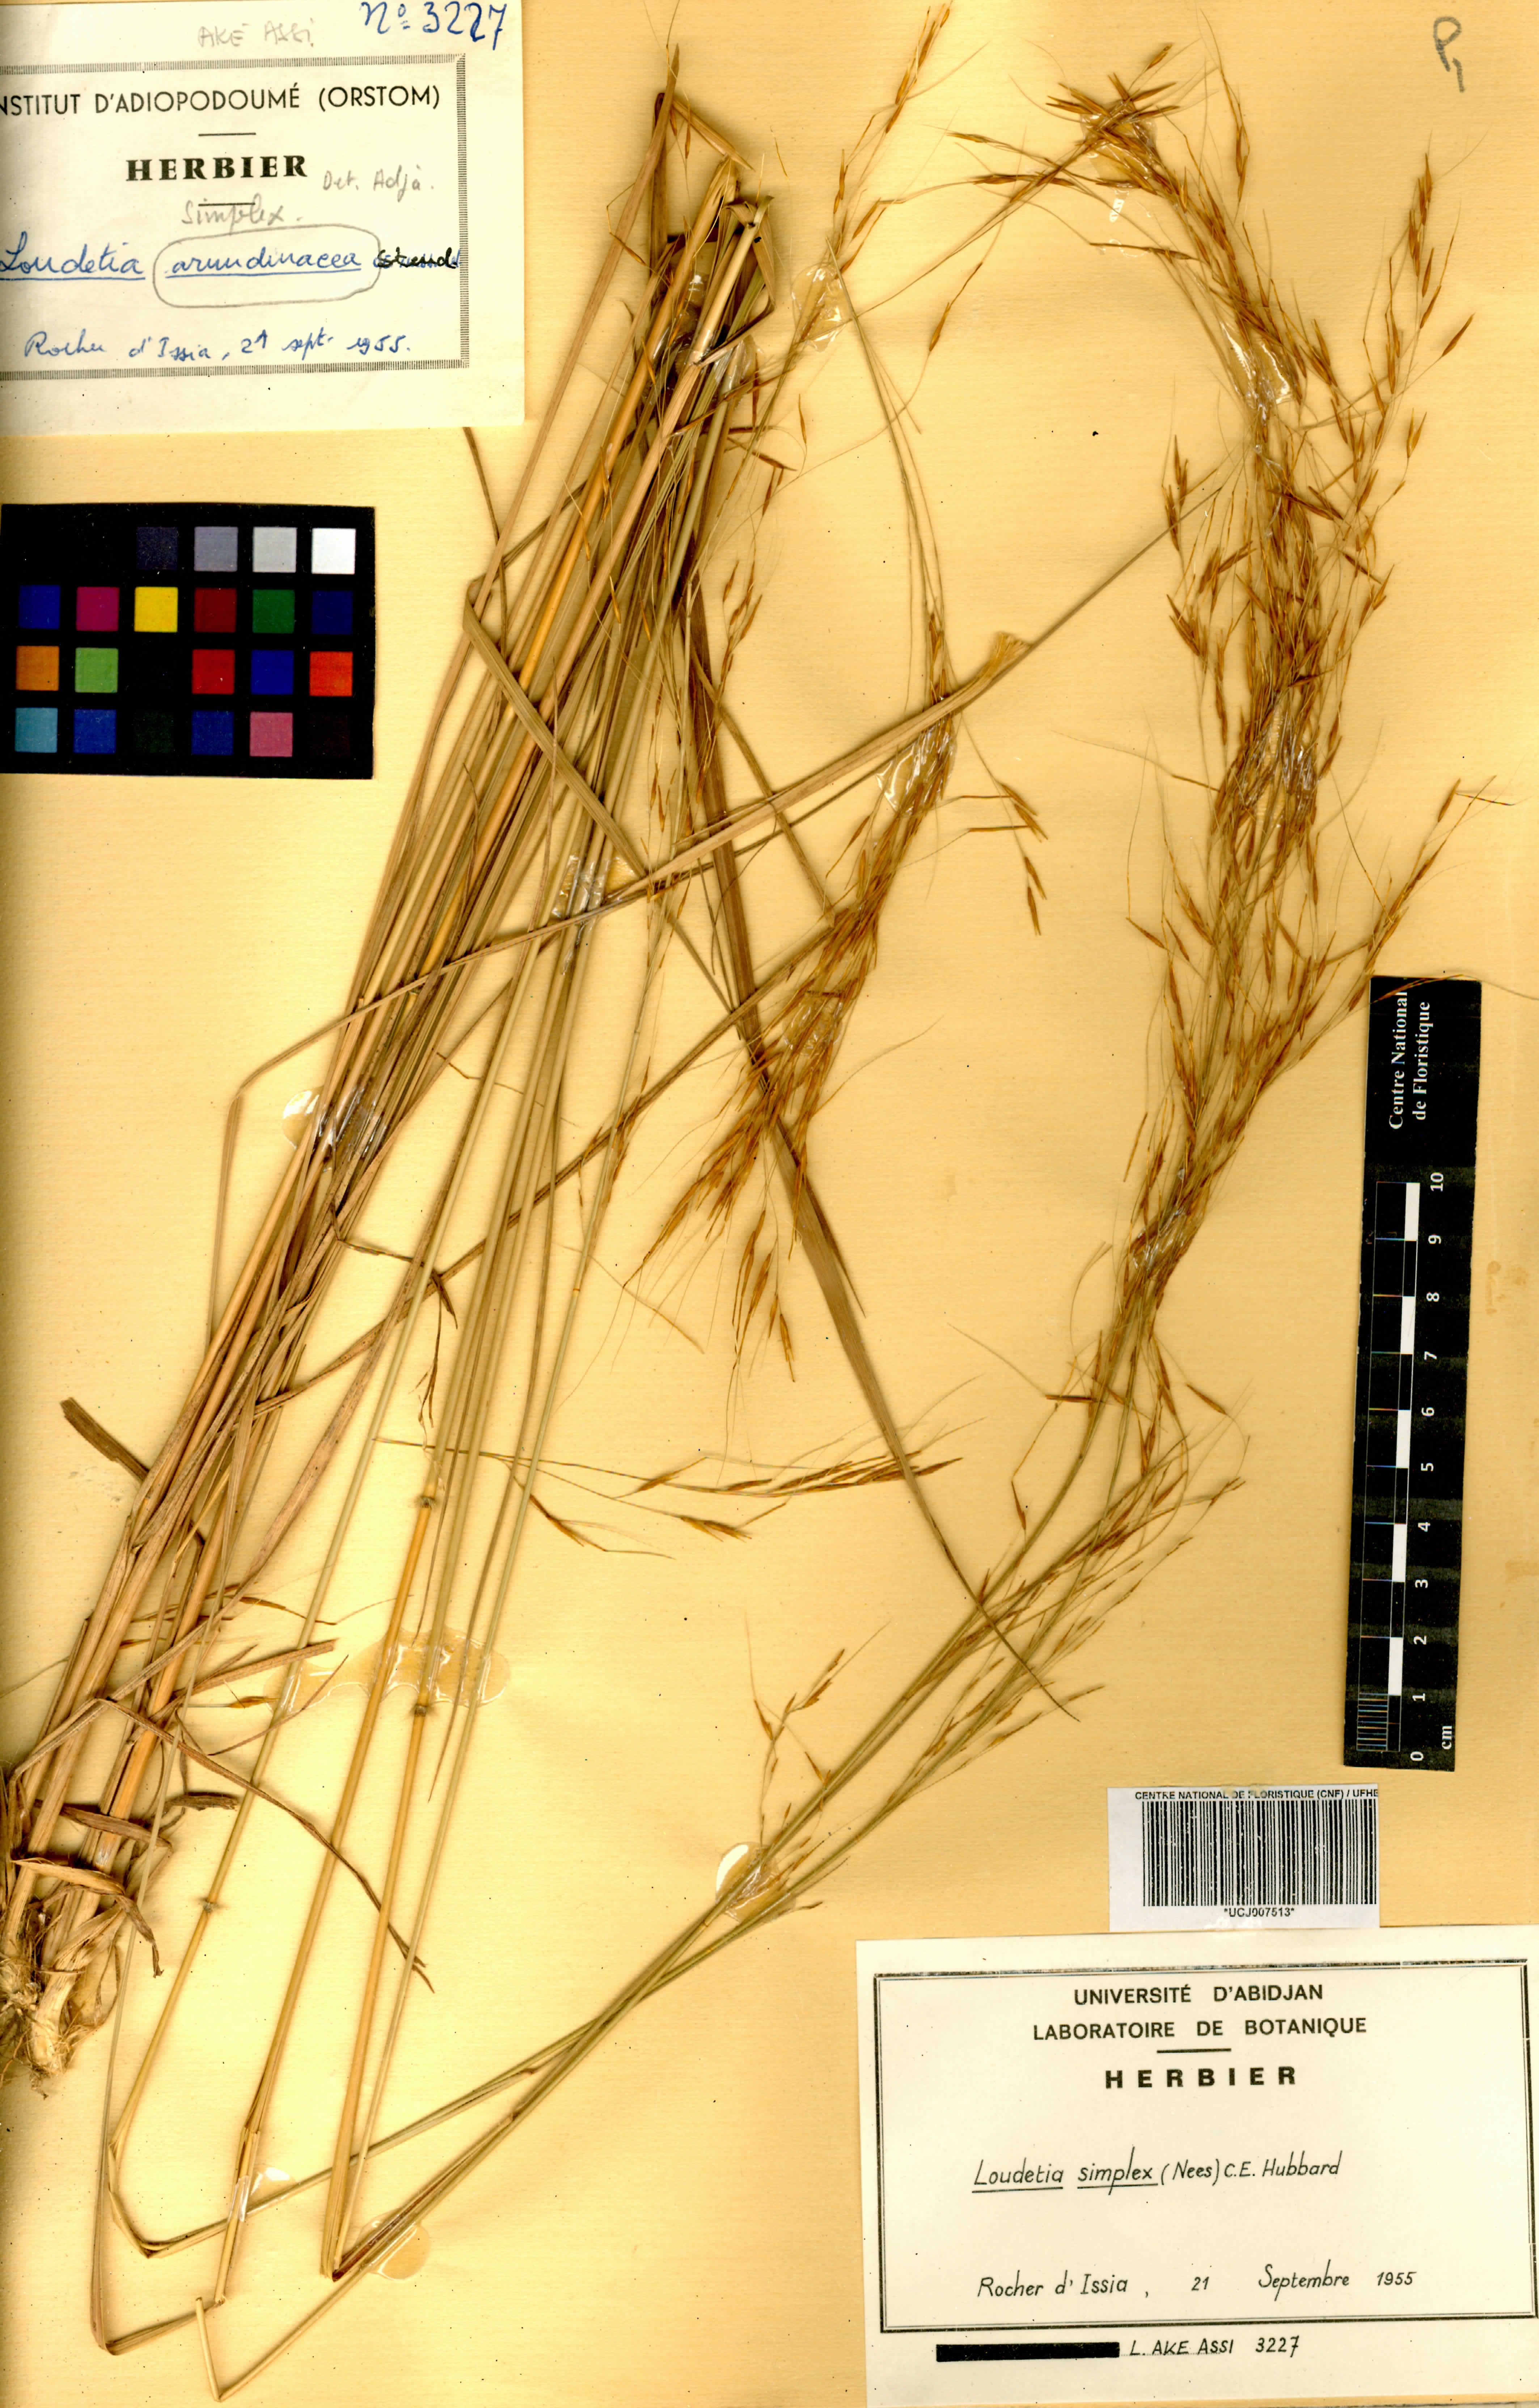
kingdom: Plantae
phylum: Tracheophyta
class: Liliopsida
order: Poales
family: Poaceae
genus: Loudetia
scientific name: Loudetia simplex
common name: Common russet grass
